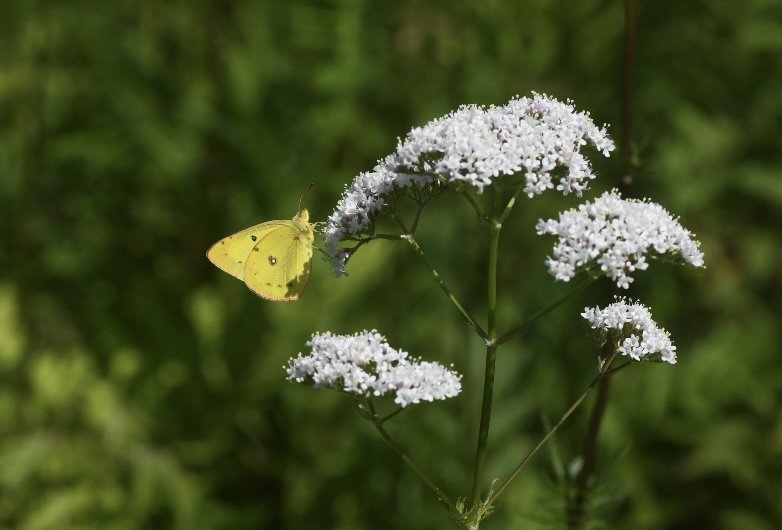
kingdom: Animalia
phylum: Arthropoda
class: Insecta
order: Lepidoptera
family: Pieridae
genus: Colias
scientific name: Colias eurytheme
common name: Orange Sulphur
